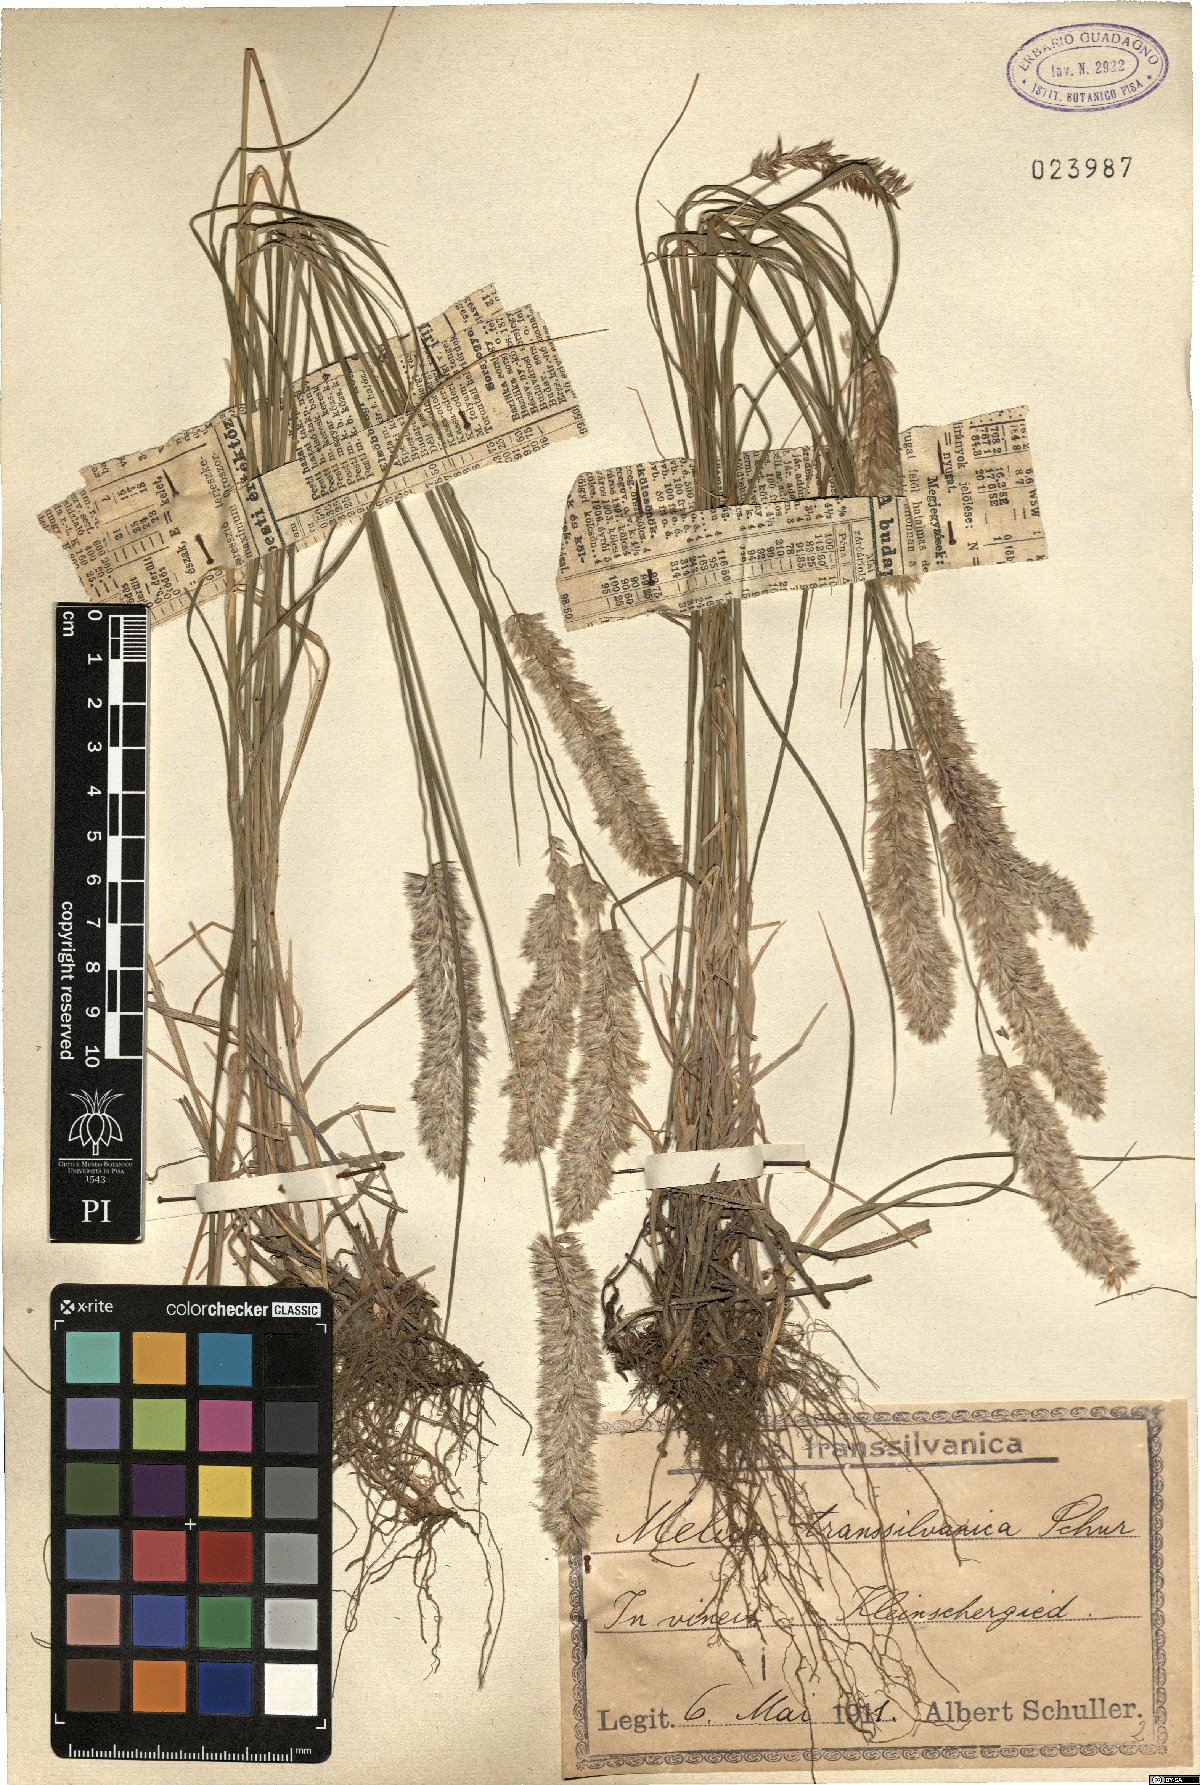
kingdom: Plantae
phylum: Tracheophyta
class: Liliopsida
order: Poales
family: Poaceae
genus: Melica
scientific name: Melica transsilvanica
